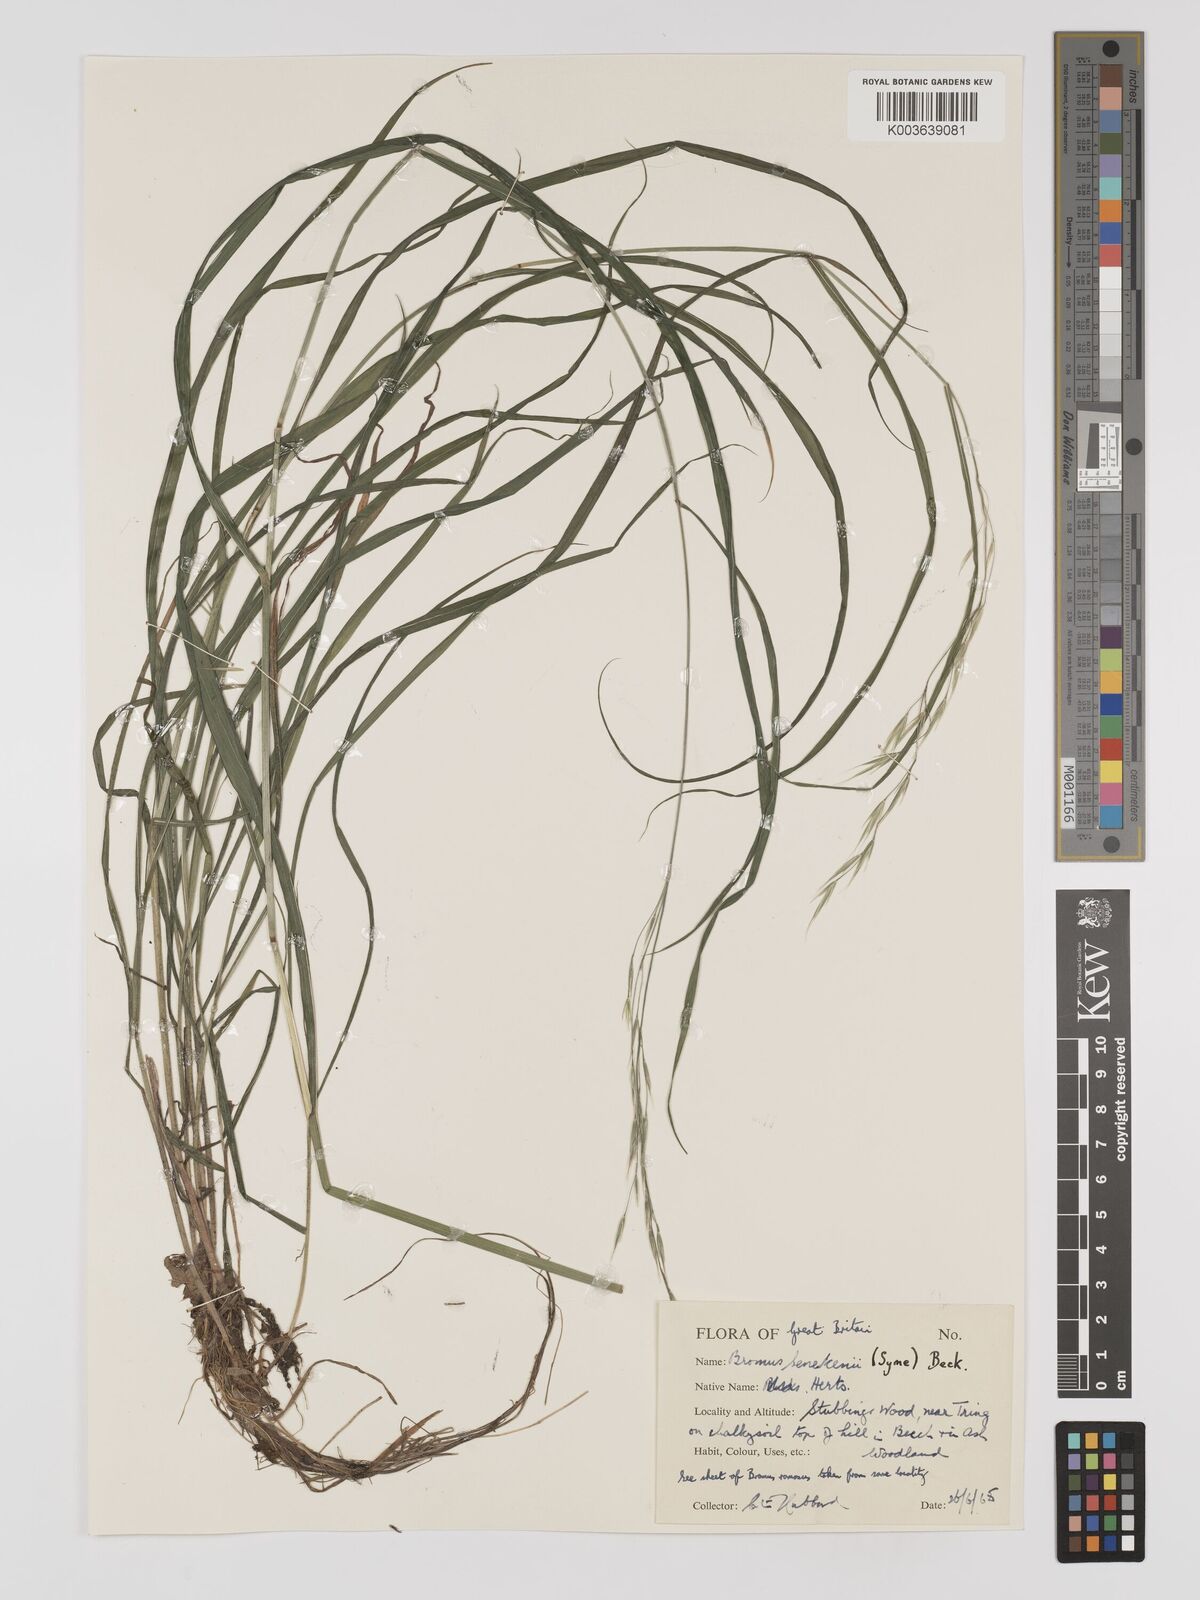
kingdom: Plantae
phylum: Tracheophyta
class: Liliopsida
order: Poales
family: Poaceae
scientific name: Poaceae
